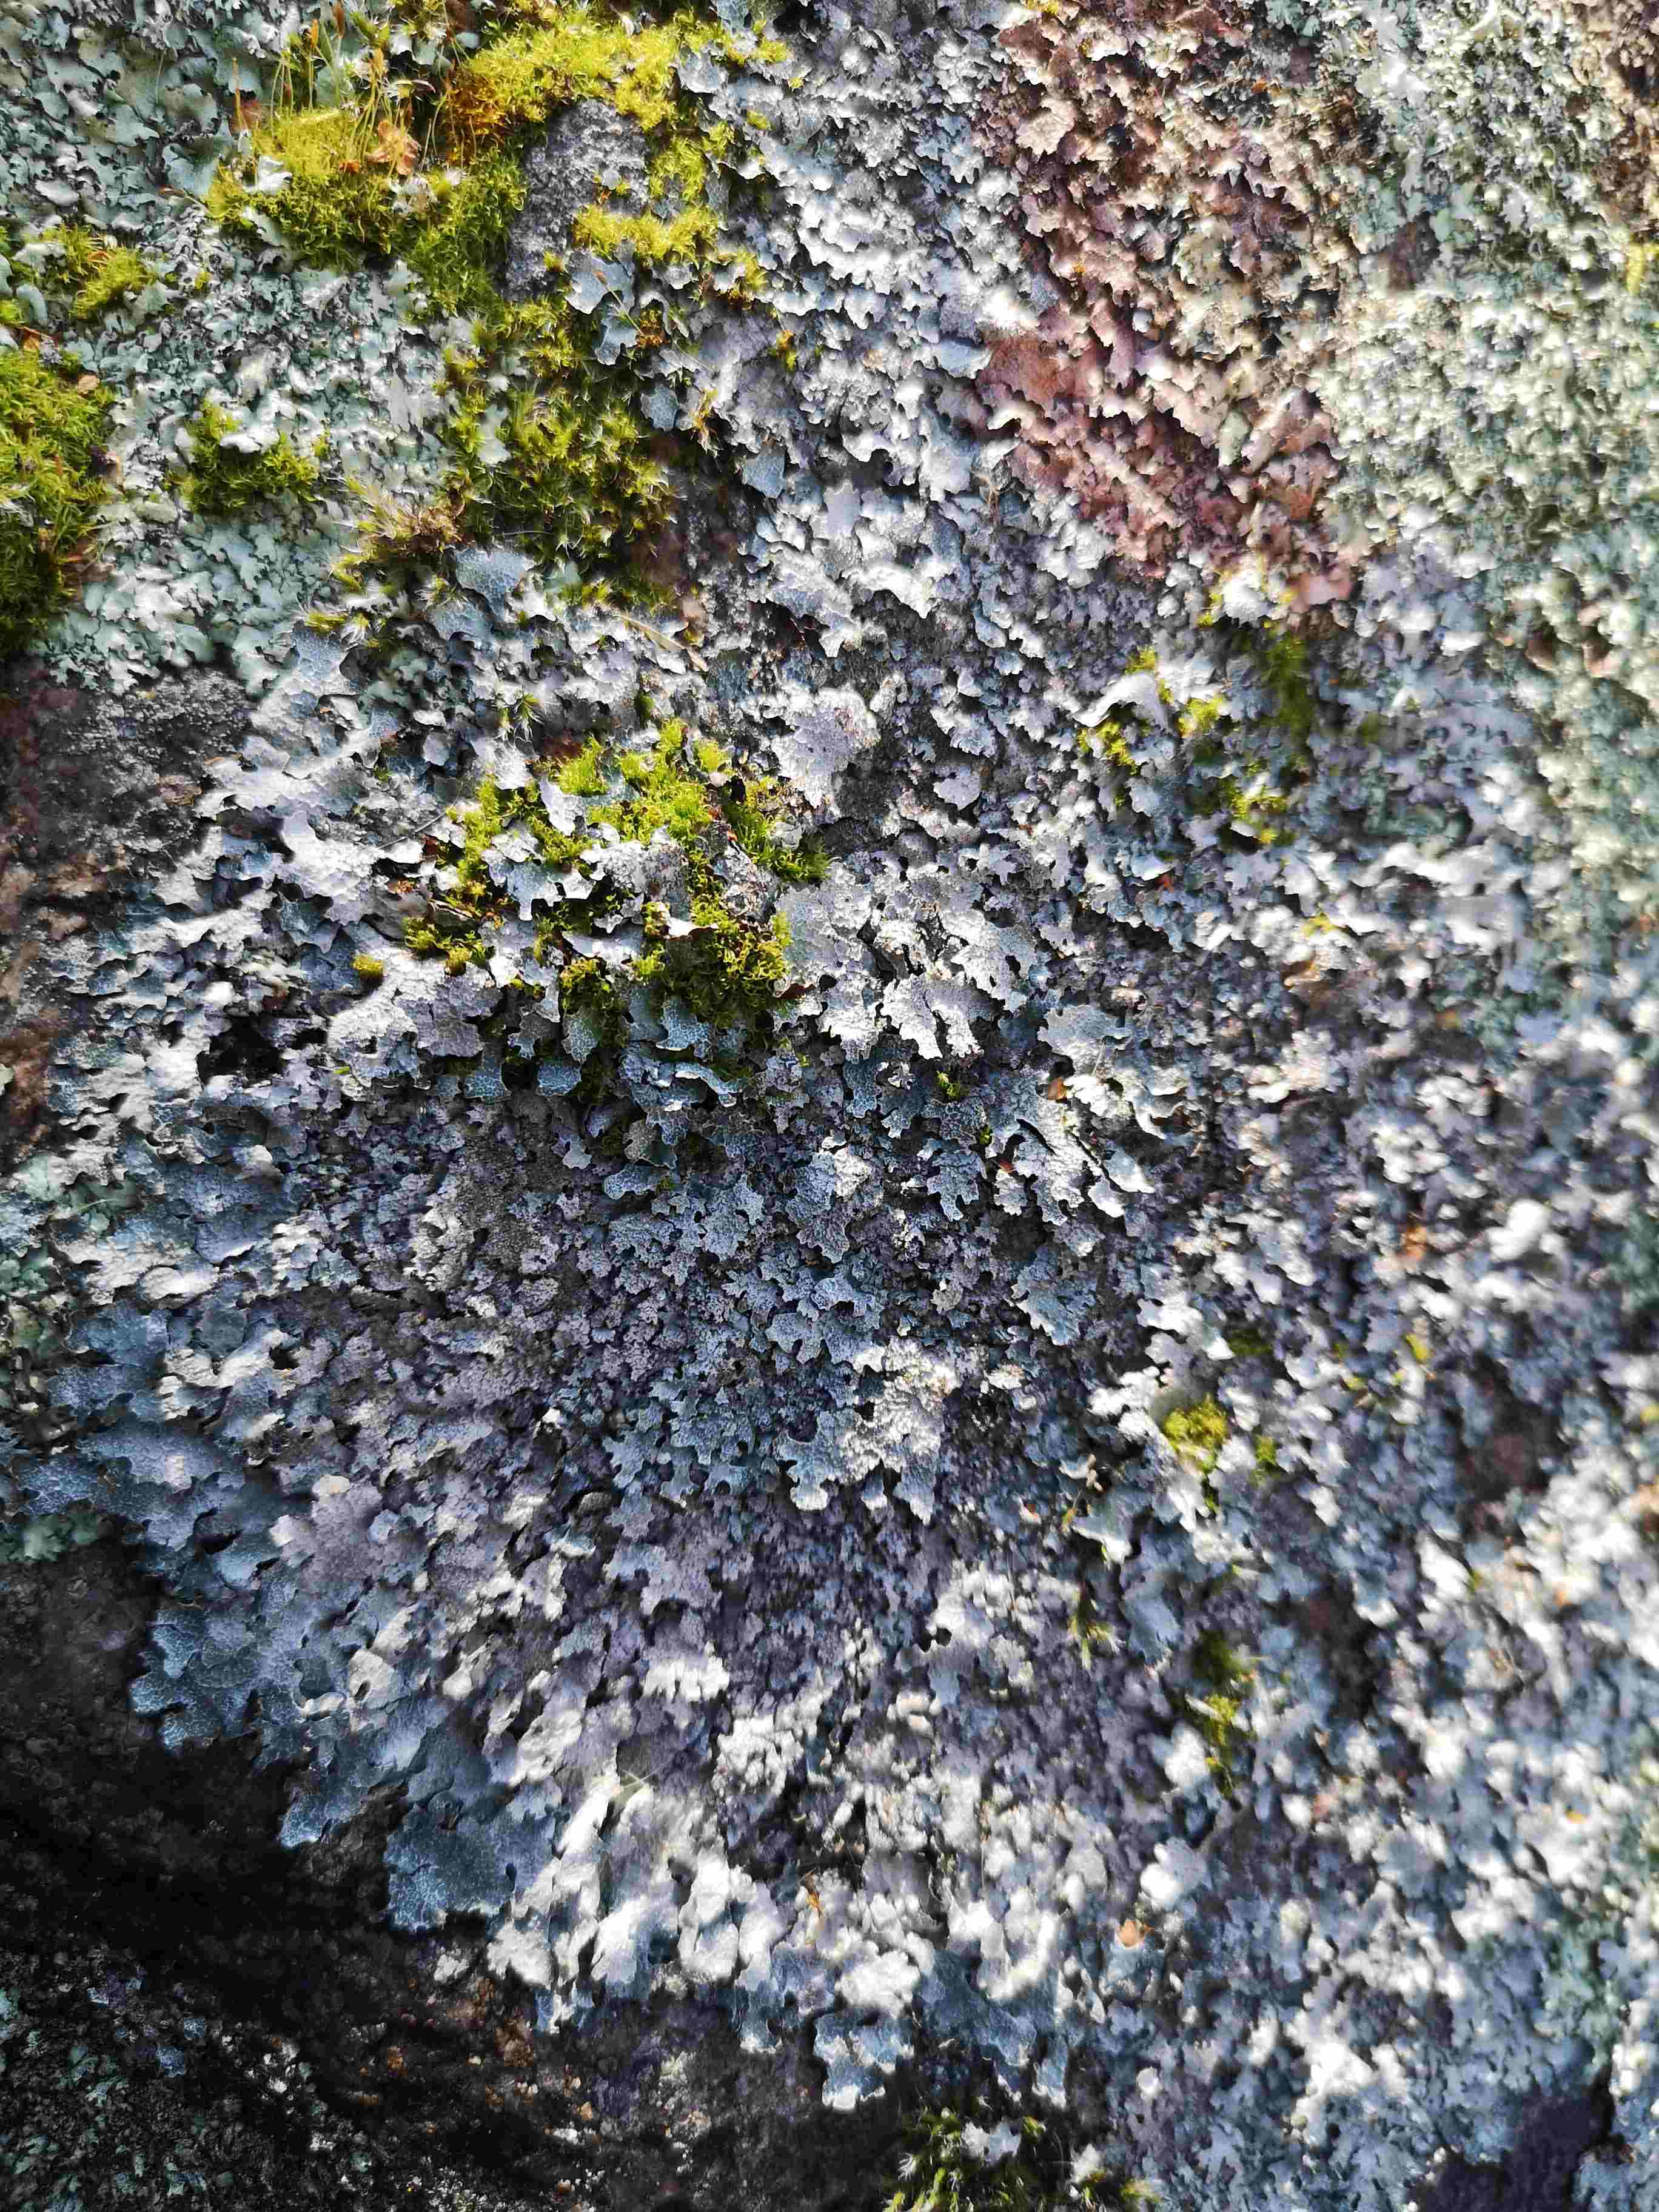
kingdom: Fungi
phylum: Ascomycota
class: Lecanoromycetes
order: Lecanorales
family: Parmeliaceae
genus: Parmelia
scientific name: Parmelia saxatilis
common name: farve-skållav
